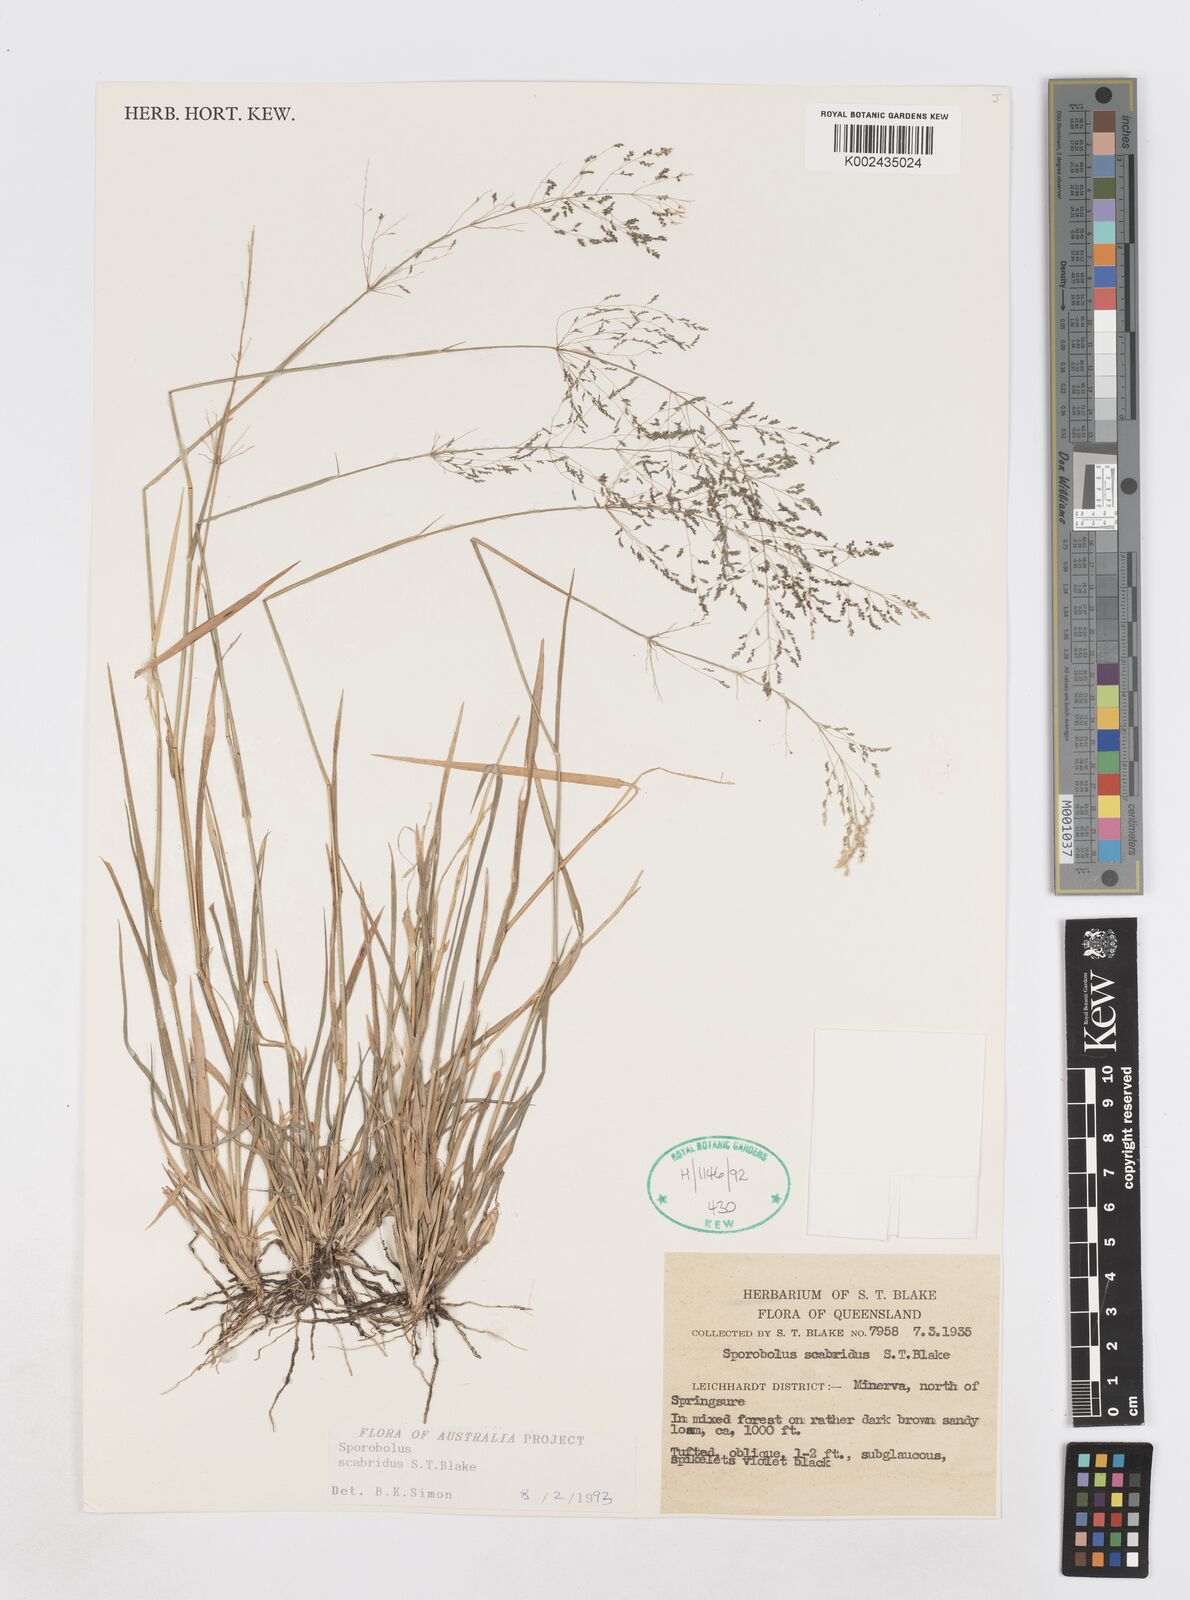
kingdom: Plantae
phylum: Tracheophyta
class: Liliopsida
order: Poales
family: Poaceae
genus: Sporobolus
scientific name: Sporobolus scabridus
